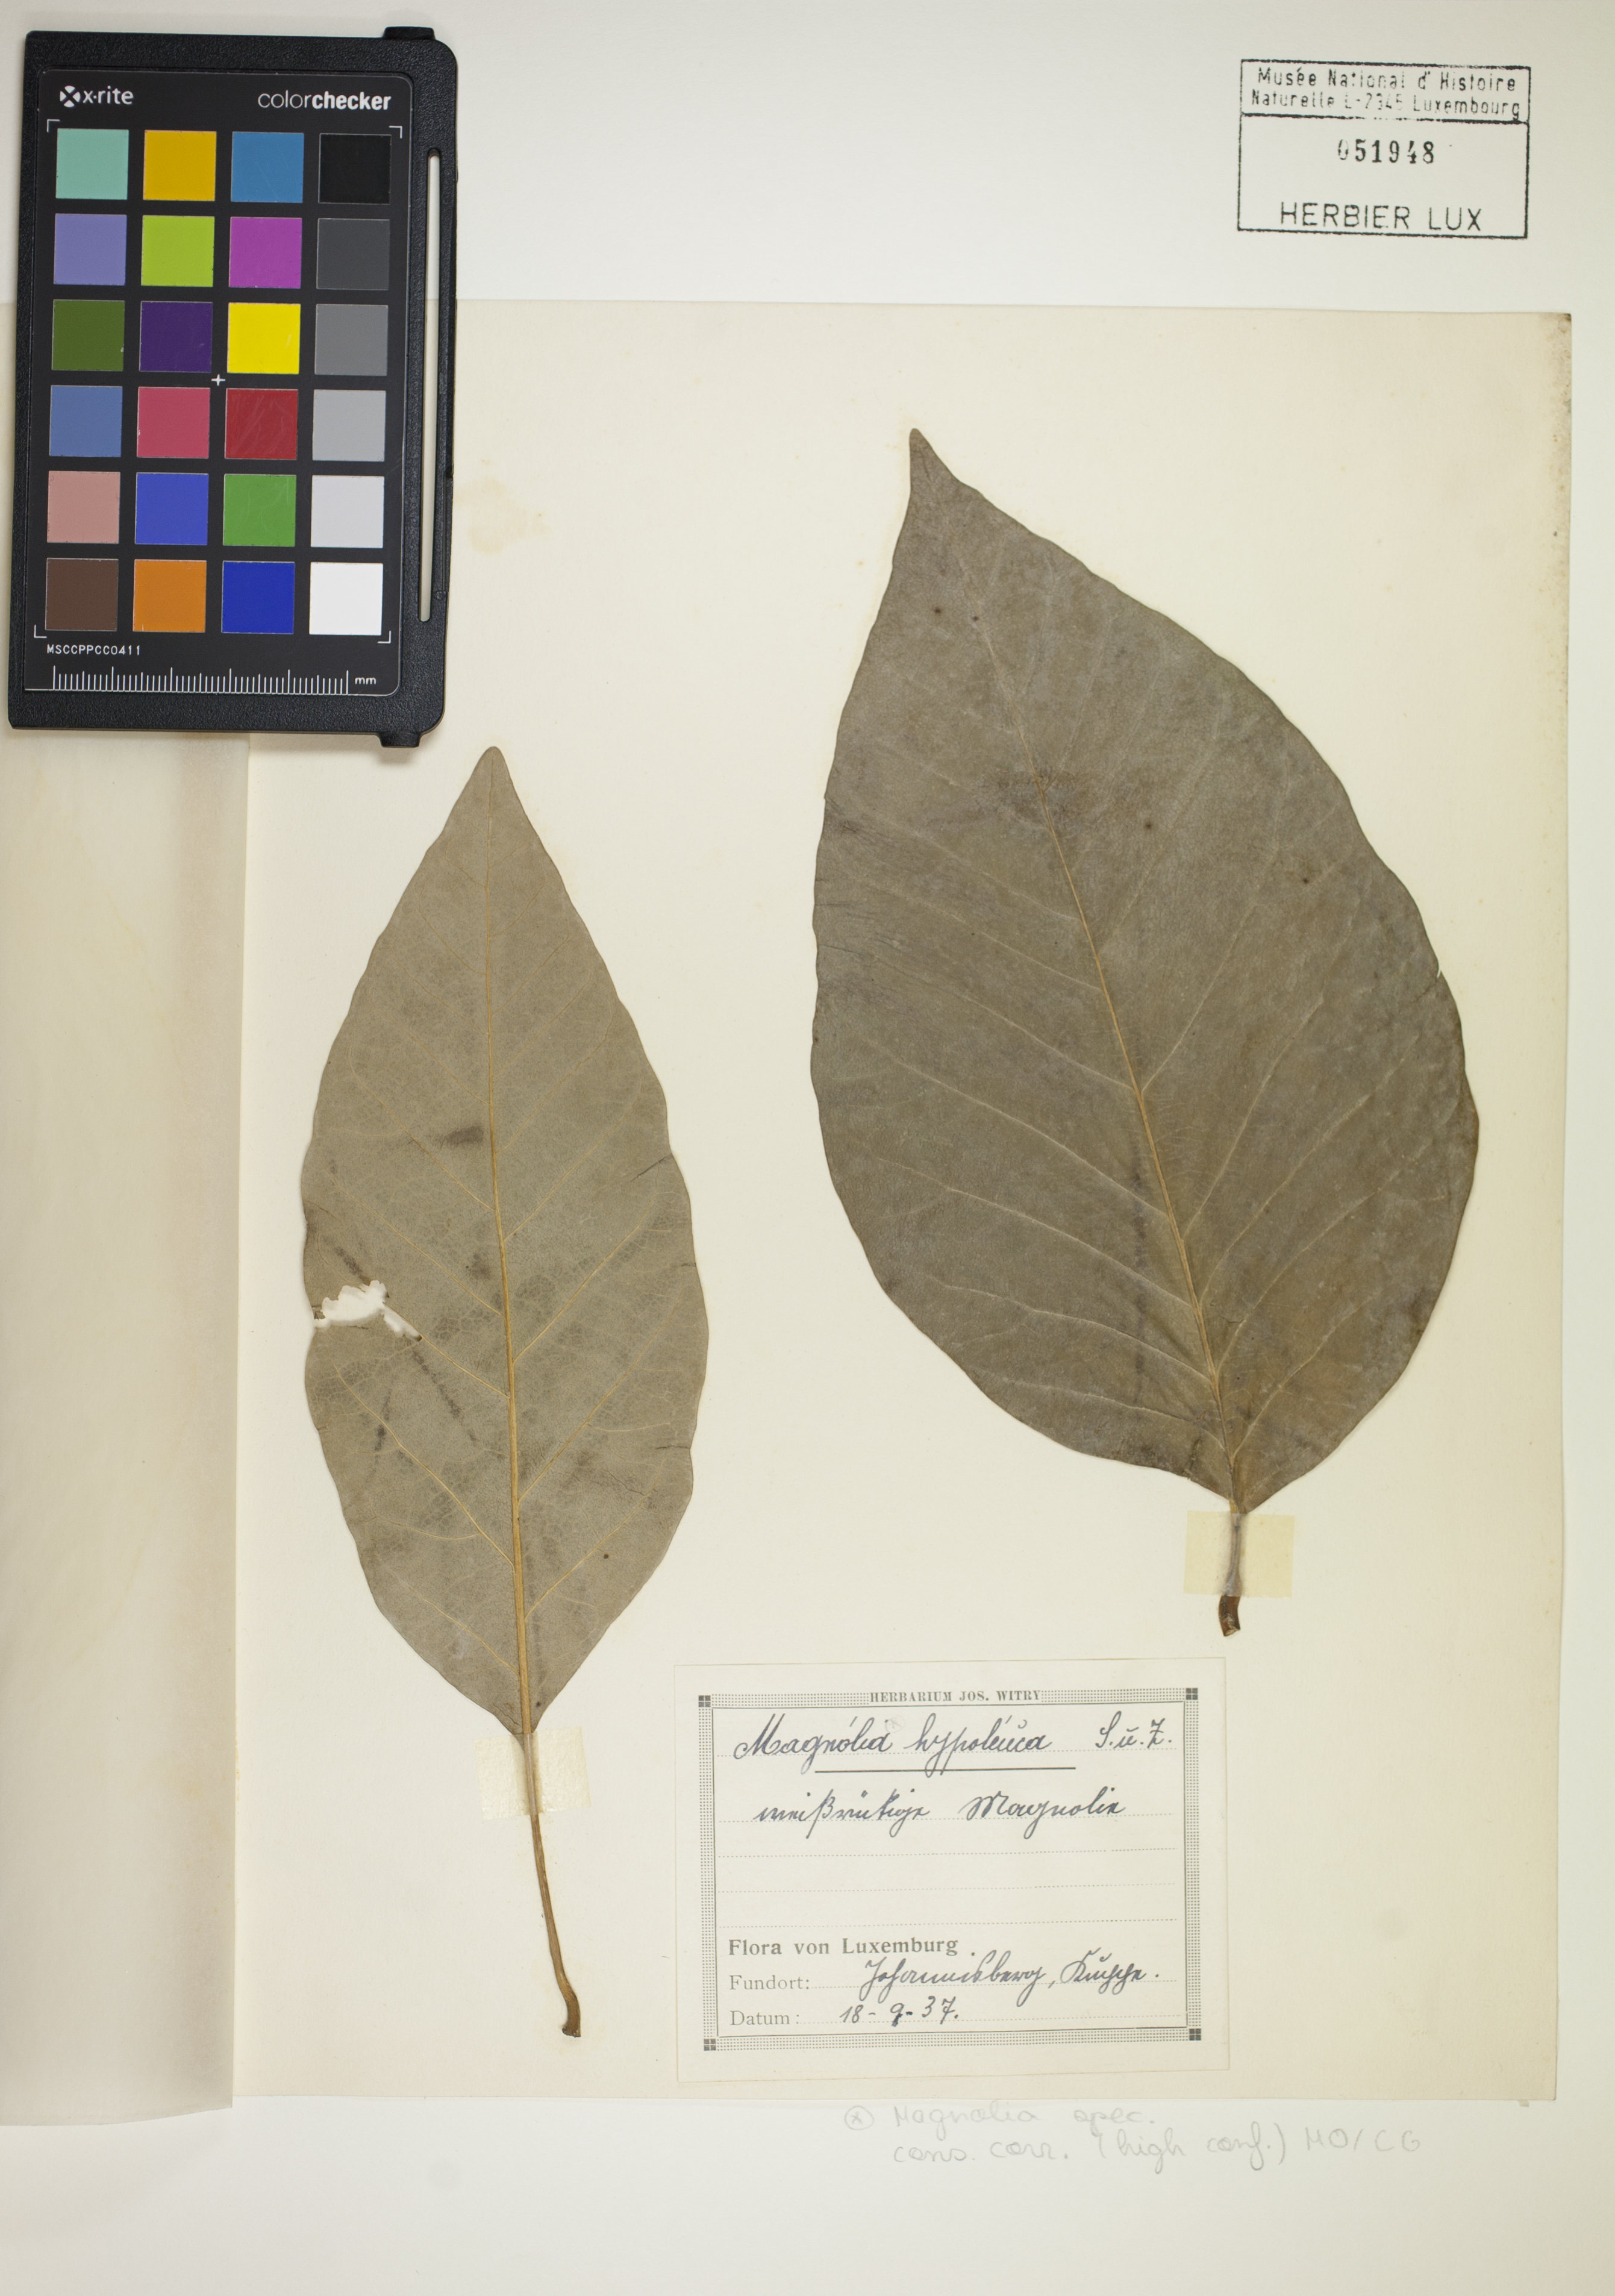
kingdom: Plantae
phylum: Tracheophyta
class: Magnoliopsida
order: Magnoliales
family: Magnoliaceae
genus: Magnolia
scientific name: Magnolia
